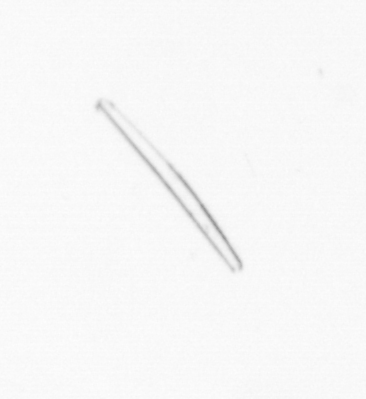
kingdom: Chromista
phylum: Ochrophyta
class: Bacillariophyceae
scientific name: Bacillariophyceae
